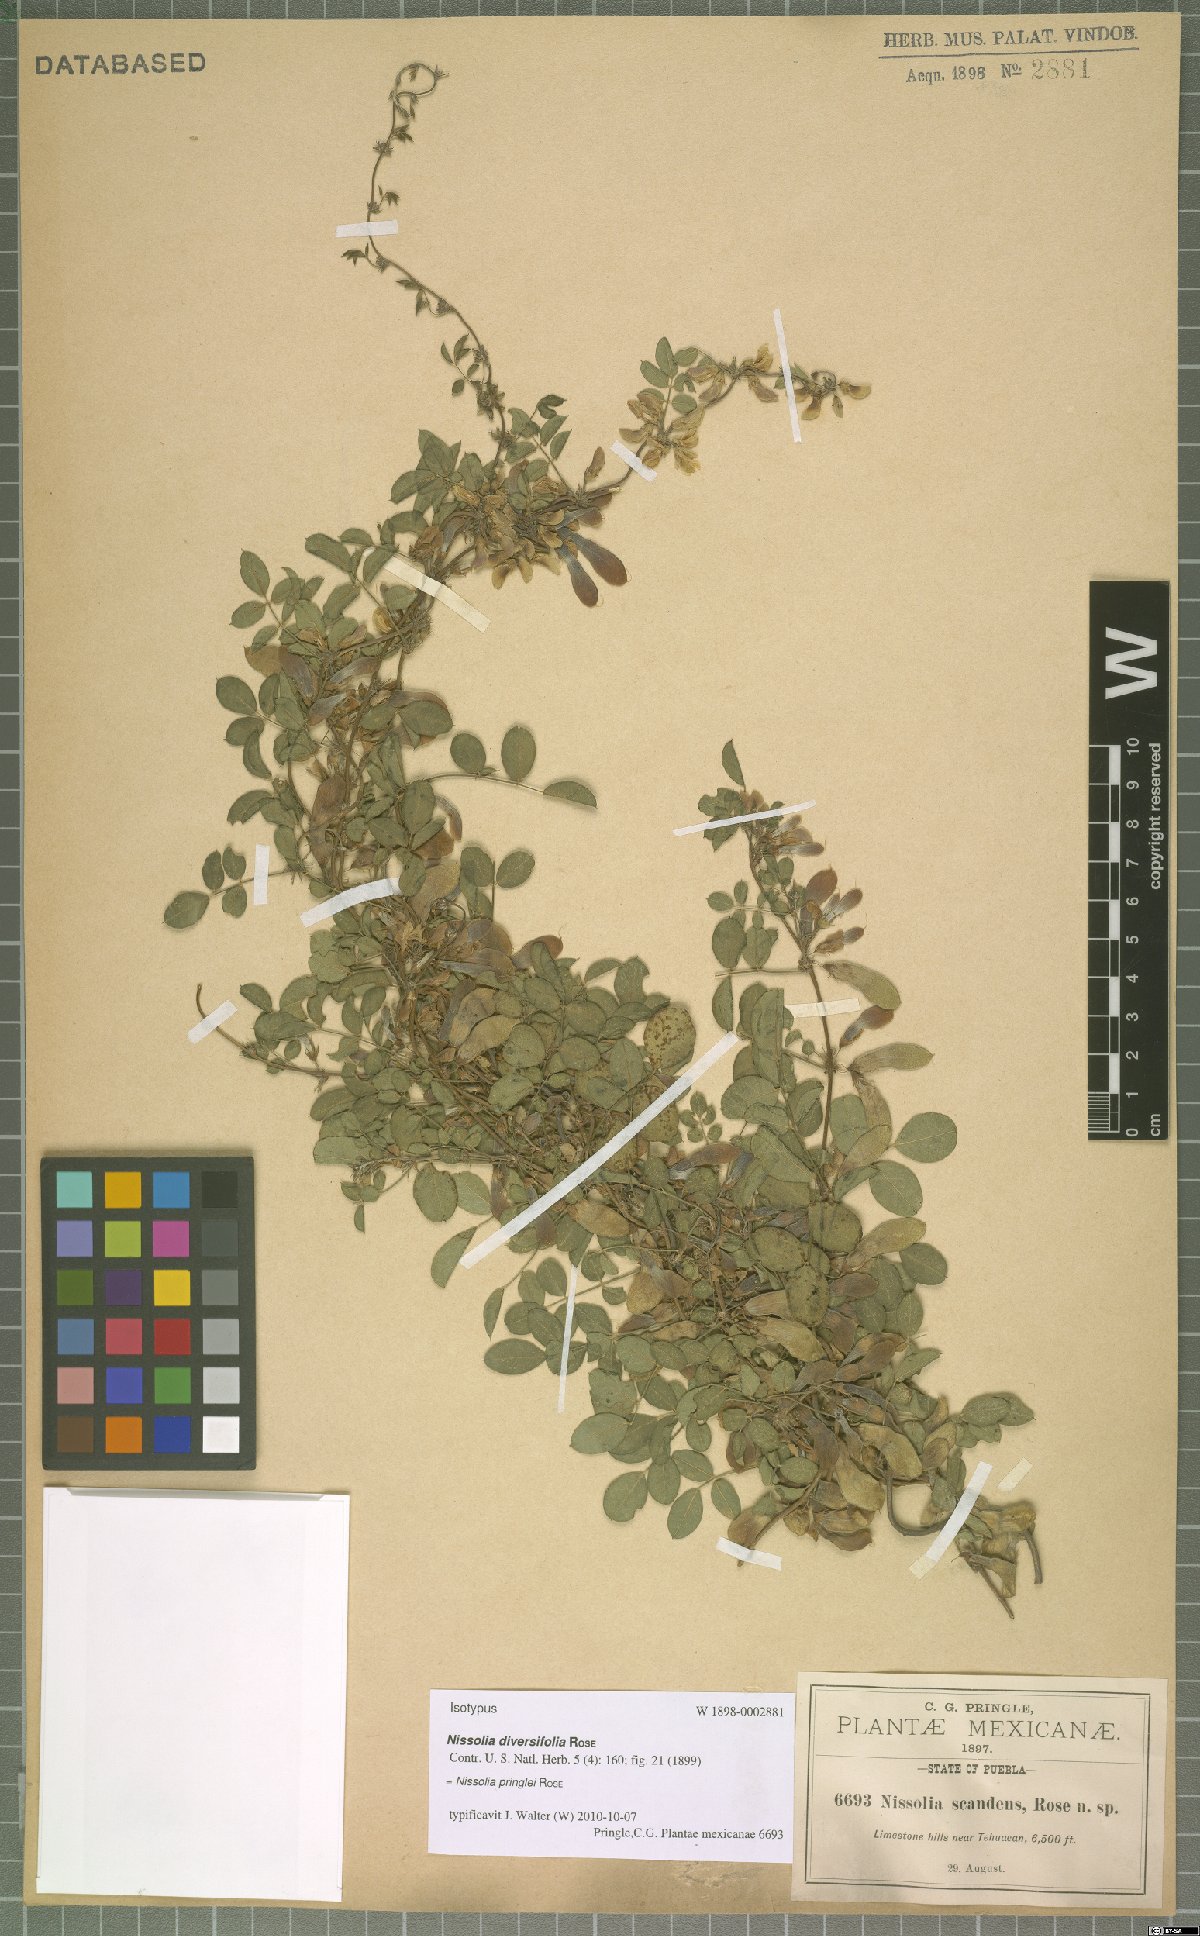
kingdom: Plantae
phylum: Tracheophyta
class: Magnoliopsida
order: Fabales
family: Fabaceae
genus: Nissolia
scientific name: Nissolia pringlei
